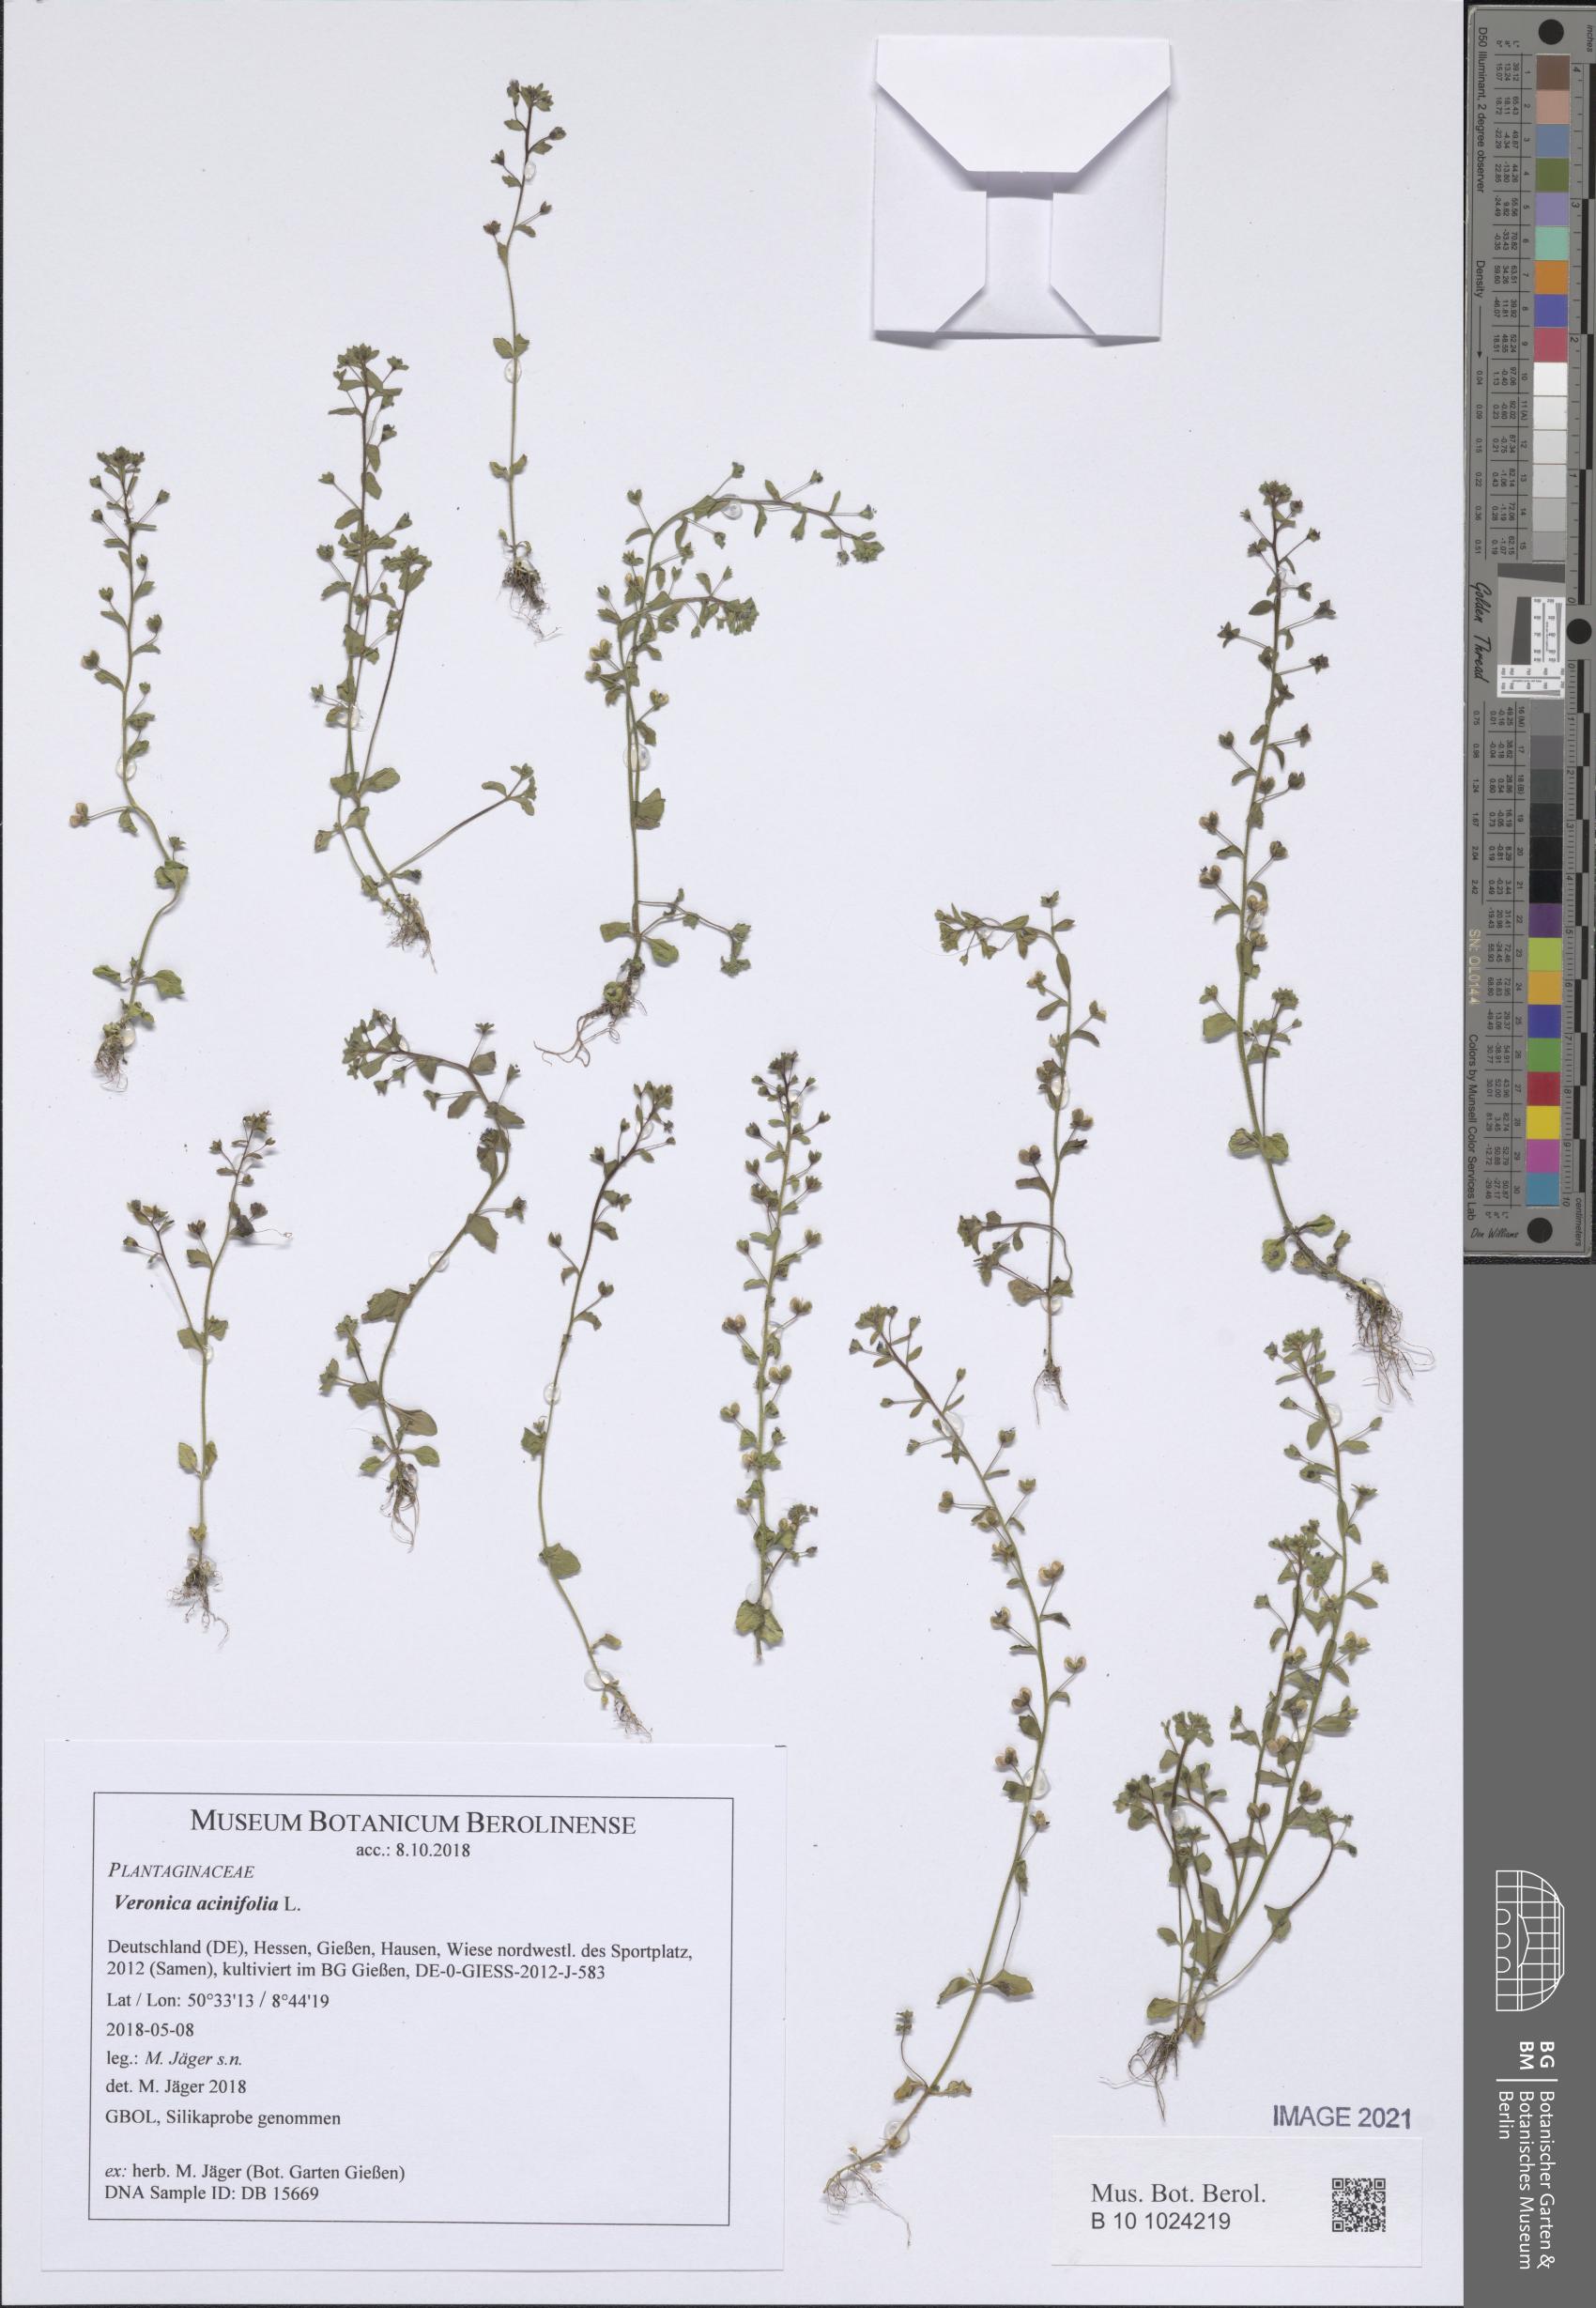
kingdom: Plantae
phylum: Tracheophyta
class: Magnoliopsida
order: Lamiales
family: Plantaginaceae
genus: Veronica
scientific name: Veronica acinifolia
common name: French speedwell
